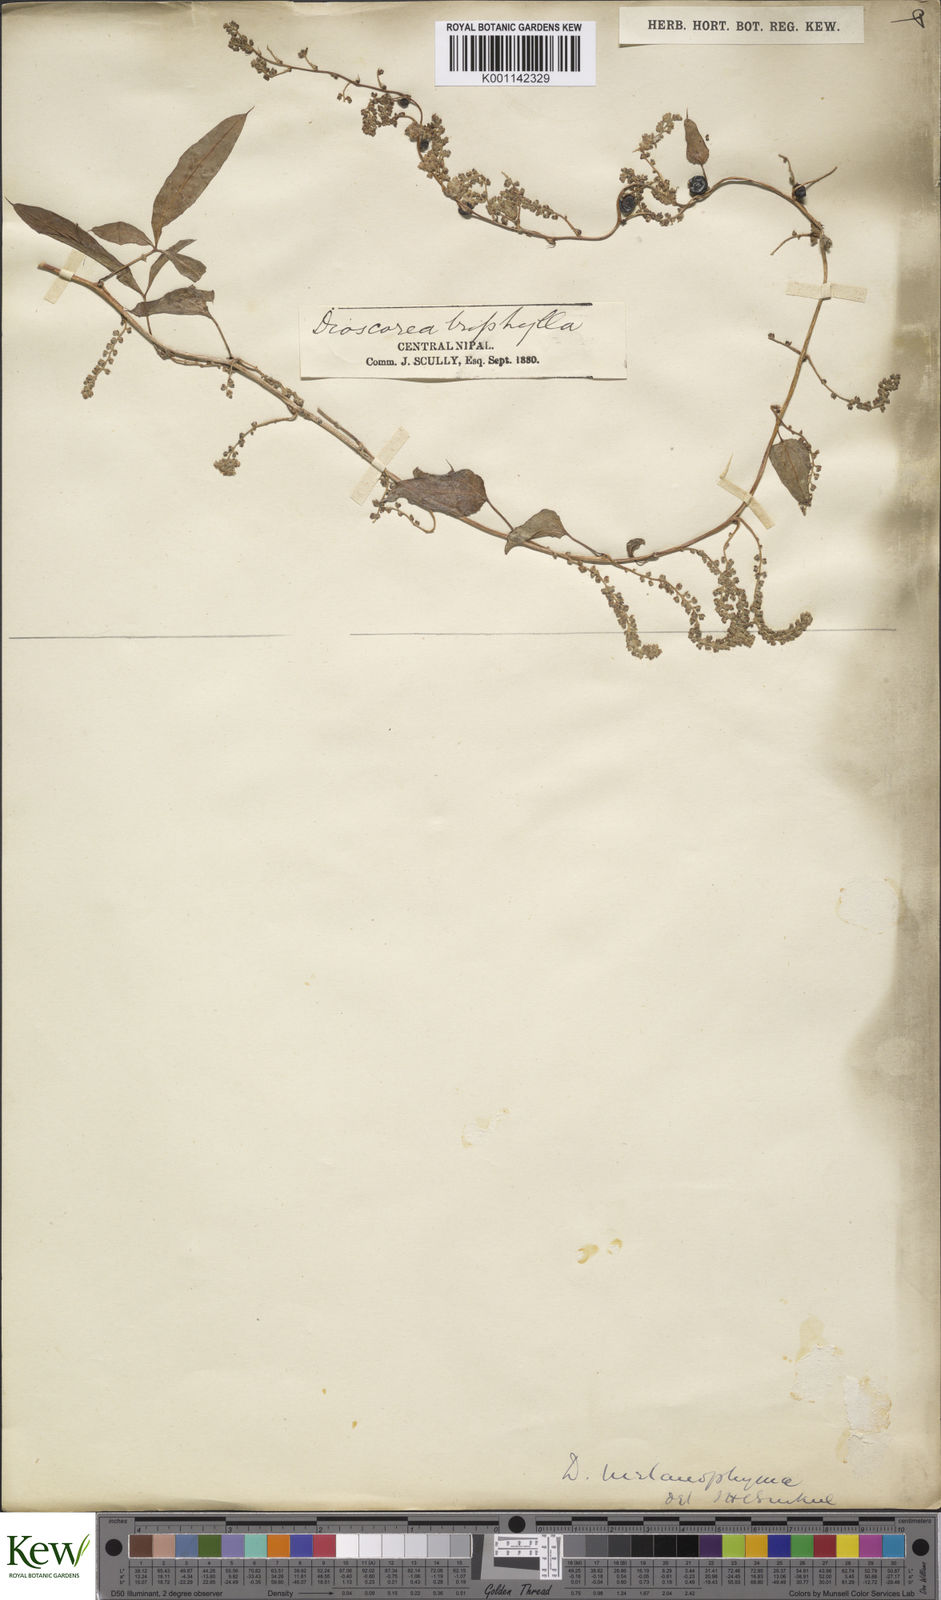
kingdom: Plantae
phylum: Tracheophyta
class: Liliopsida
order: Dioscoreales
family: Dioscoreaceae
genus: Dioscorea
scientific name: Dioscorea melanophyma
